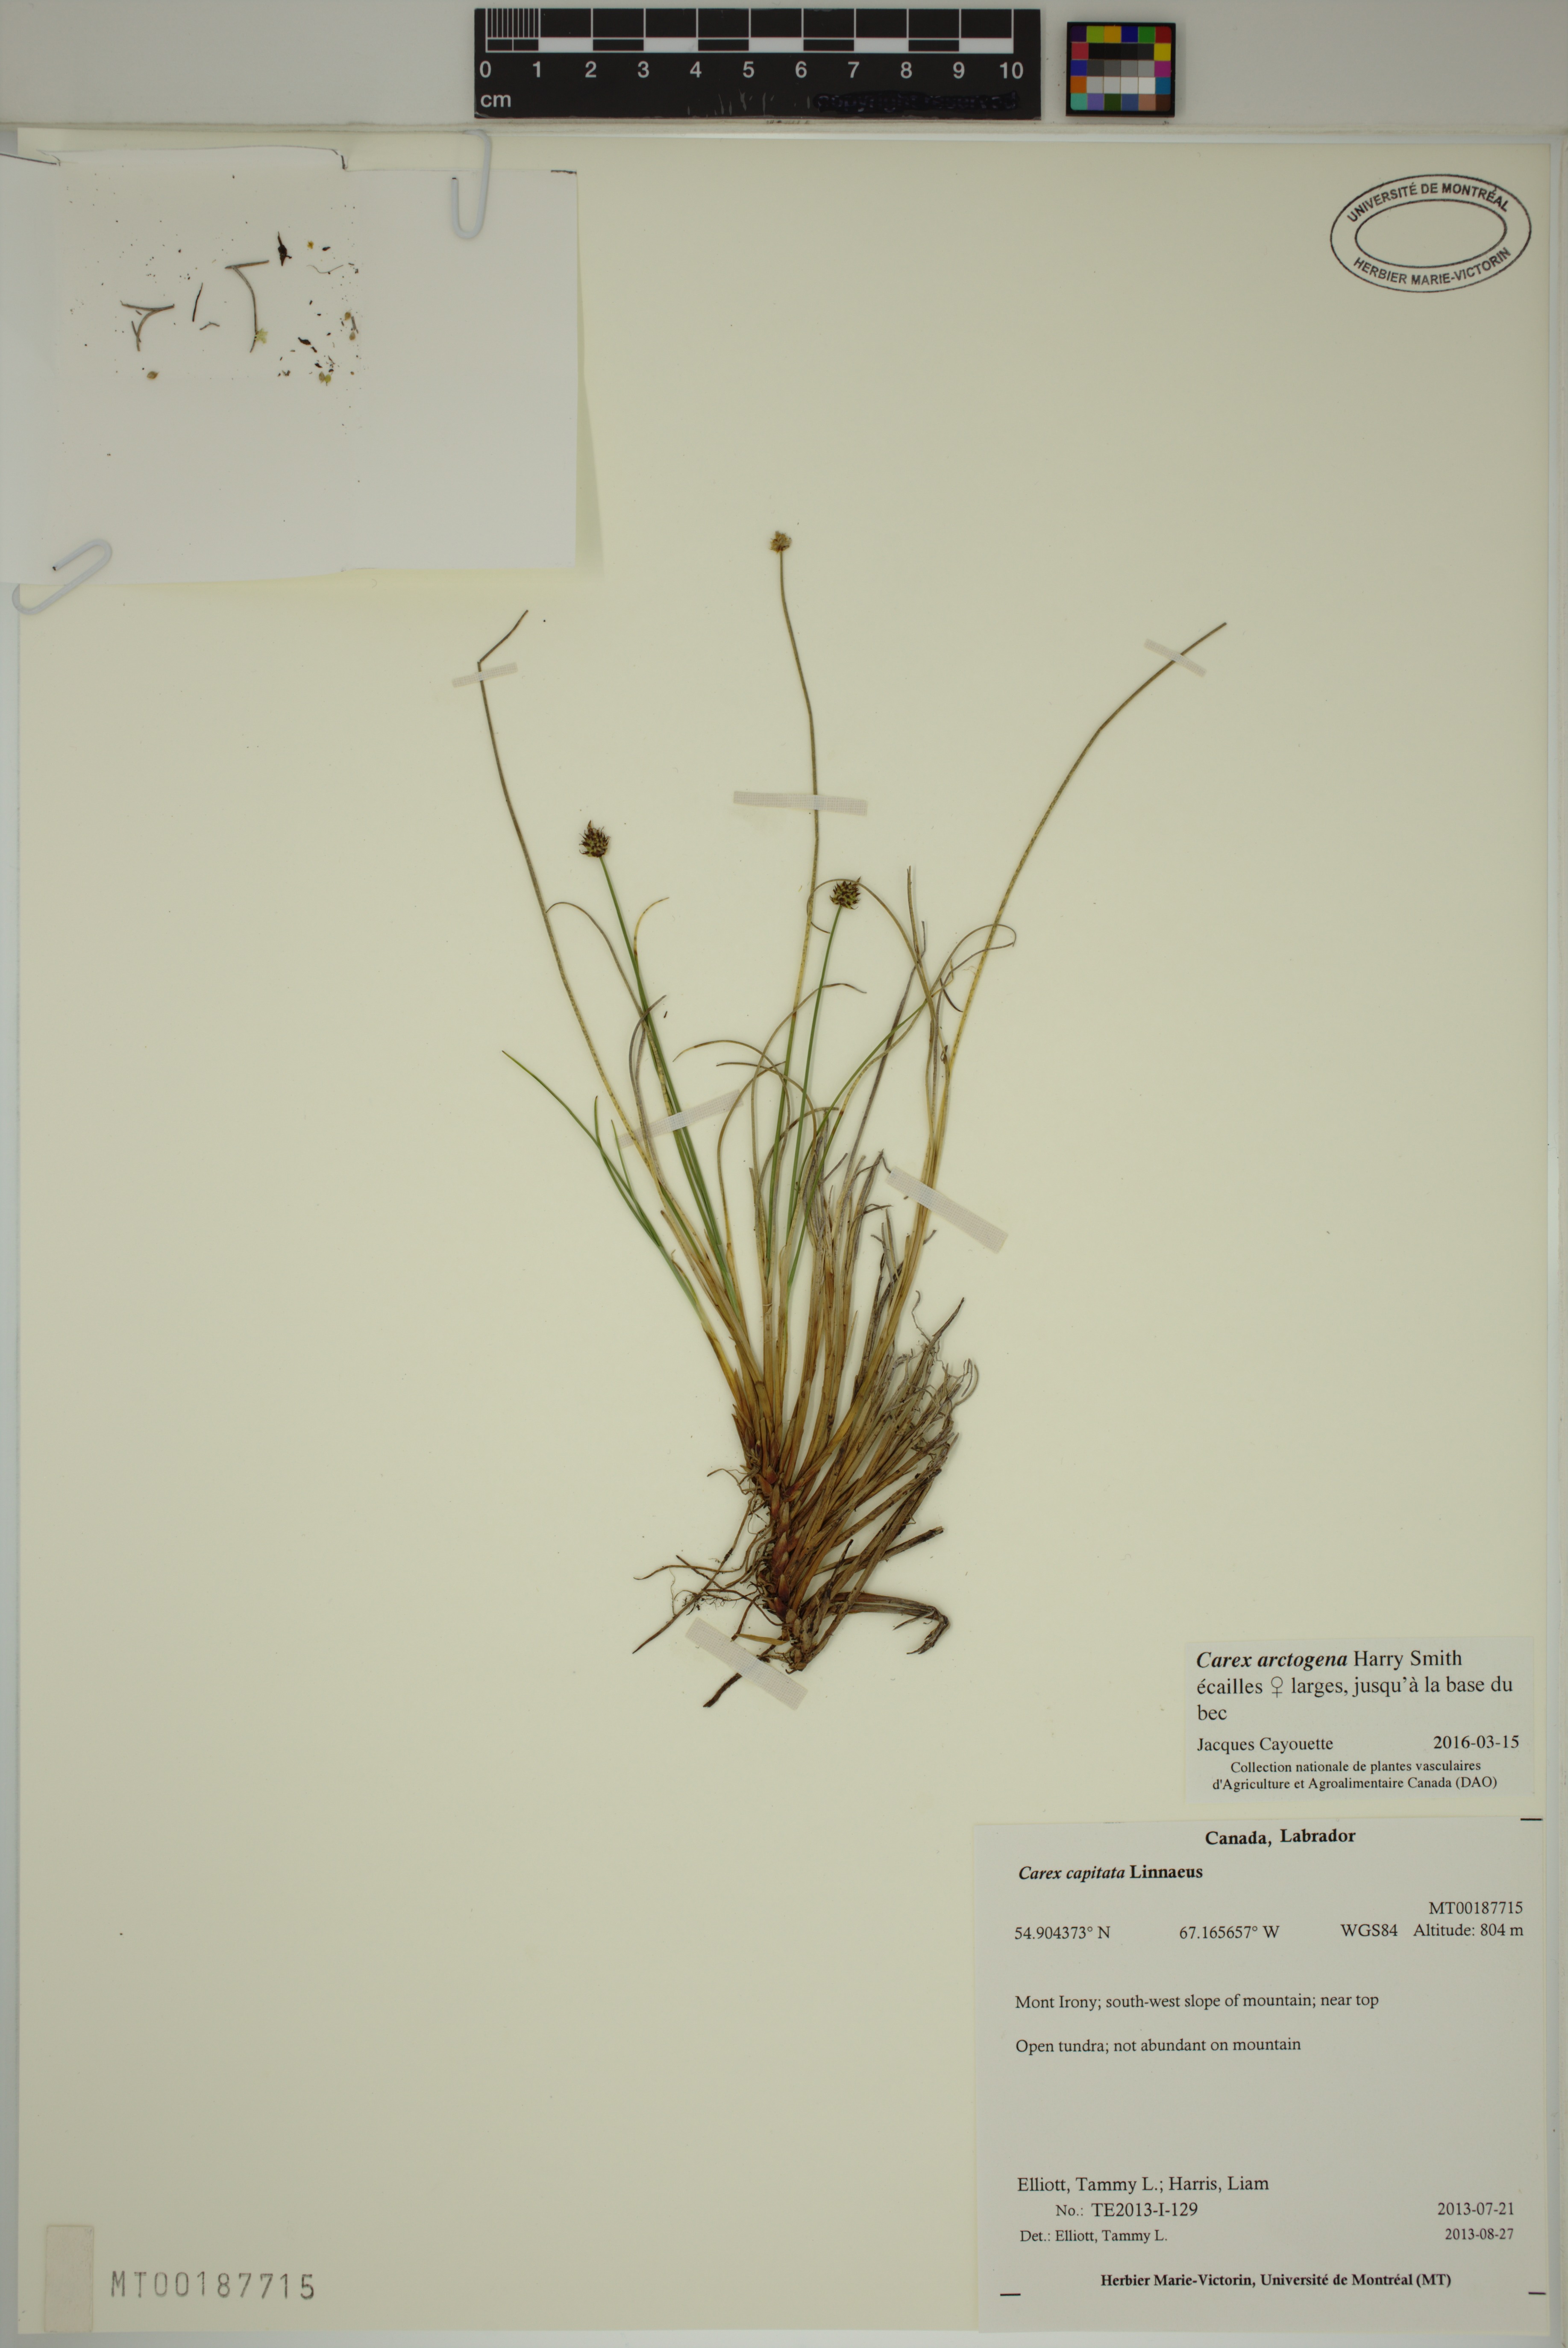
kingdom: Plantae
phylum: Tracheophyta
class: Liliopsida
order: Poales
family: Cyperaceae
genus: Carex
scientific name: Carex arctogena
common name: Black sedge
